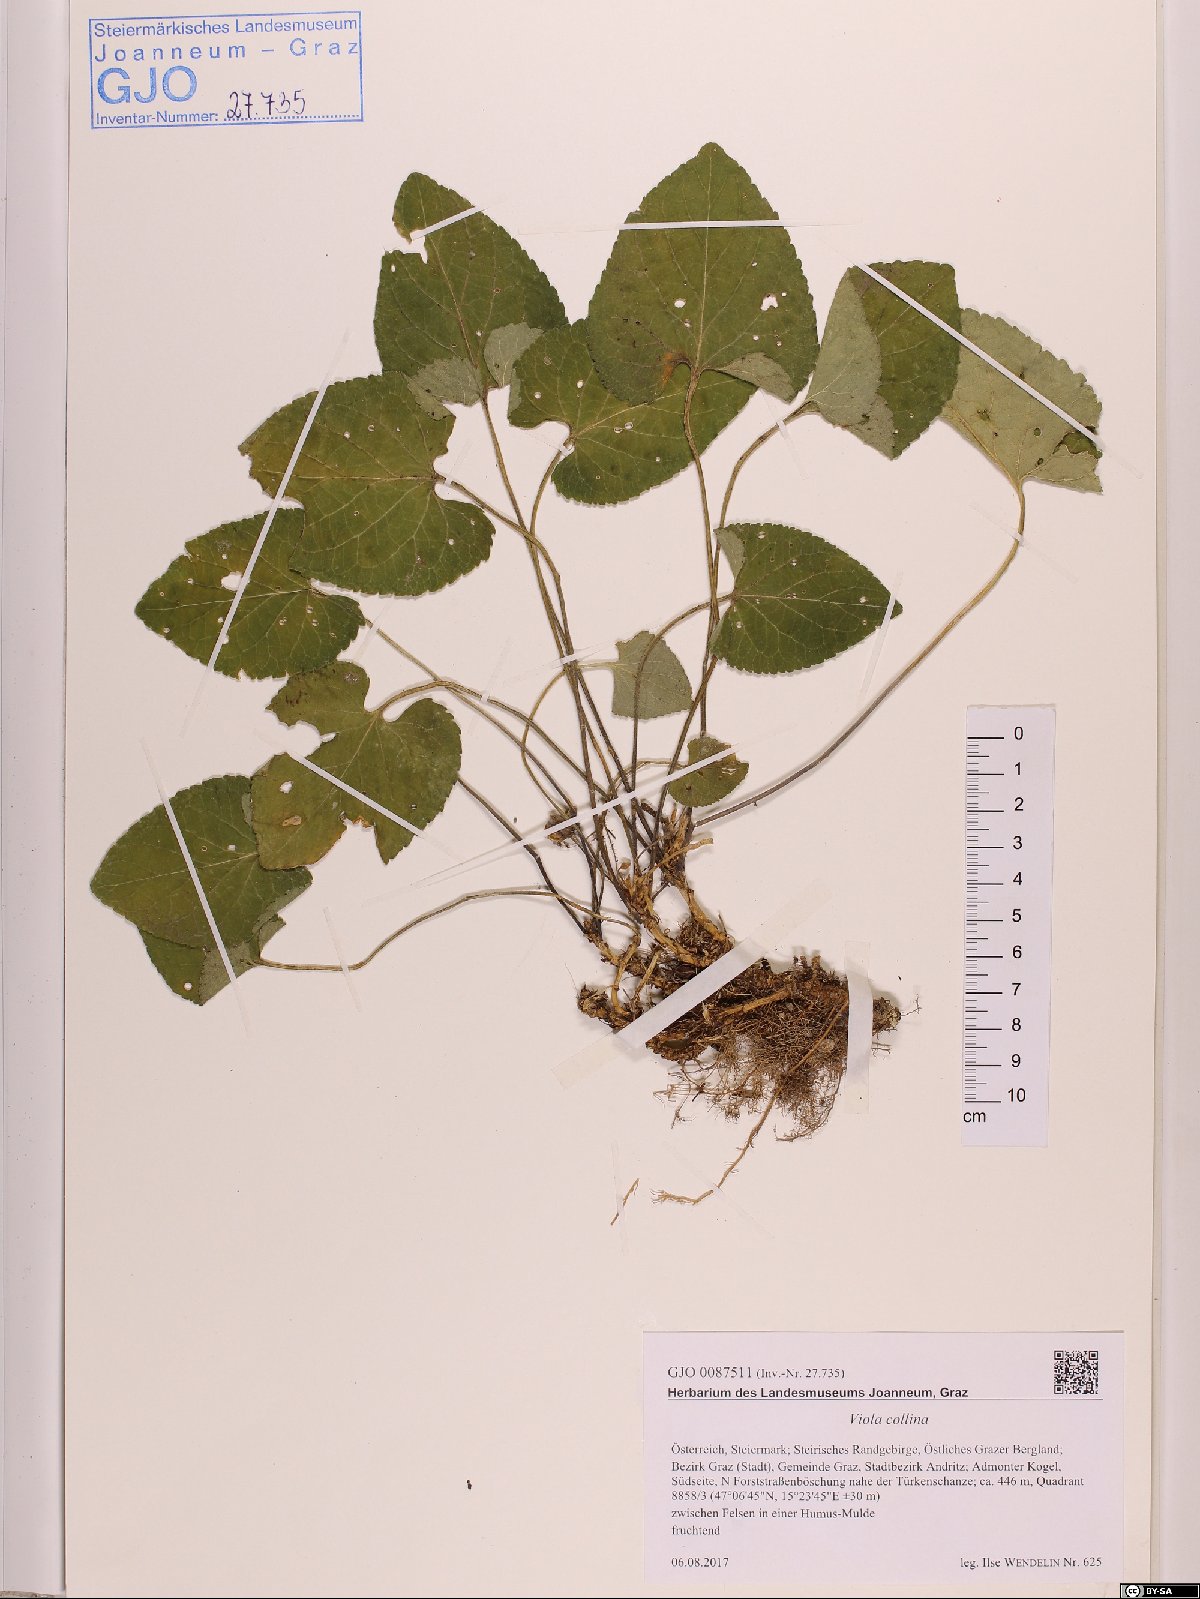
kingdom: Plantae
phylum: Tracheophyta
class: Magnoliopsida
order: Malpighiales
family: Violaceae
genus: Viola
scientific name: Viola collina
